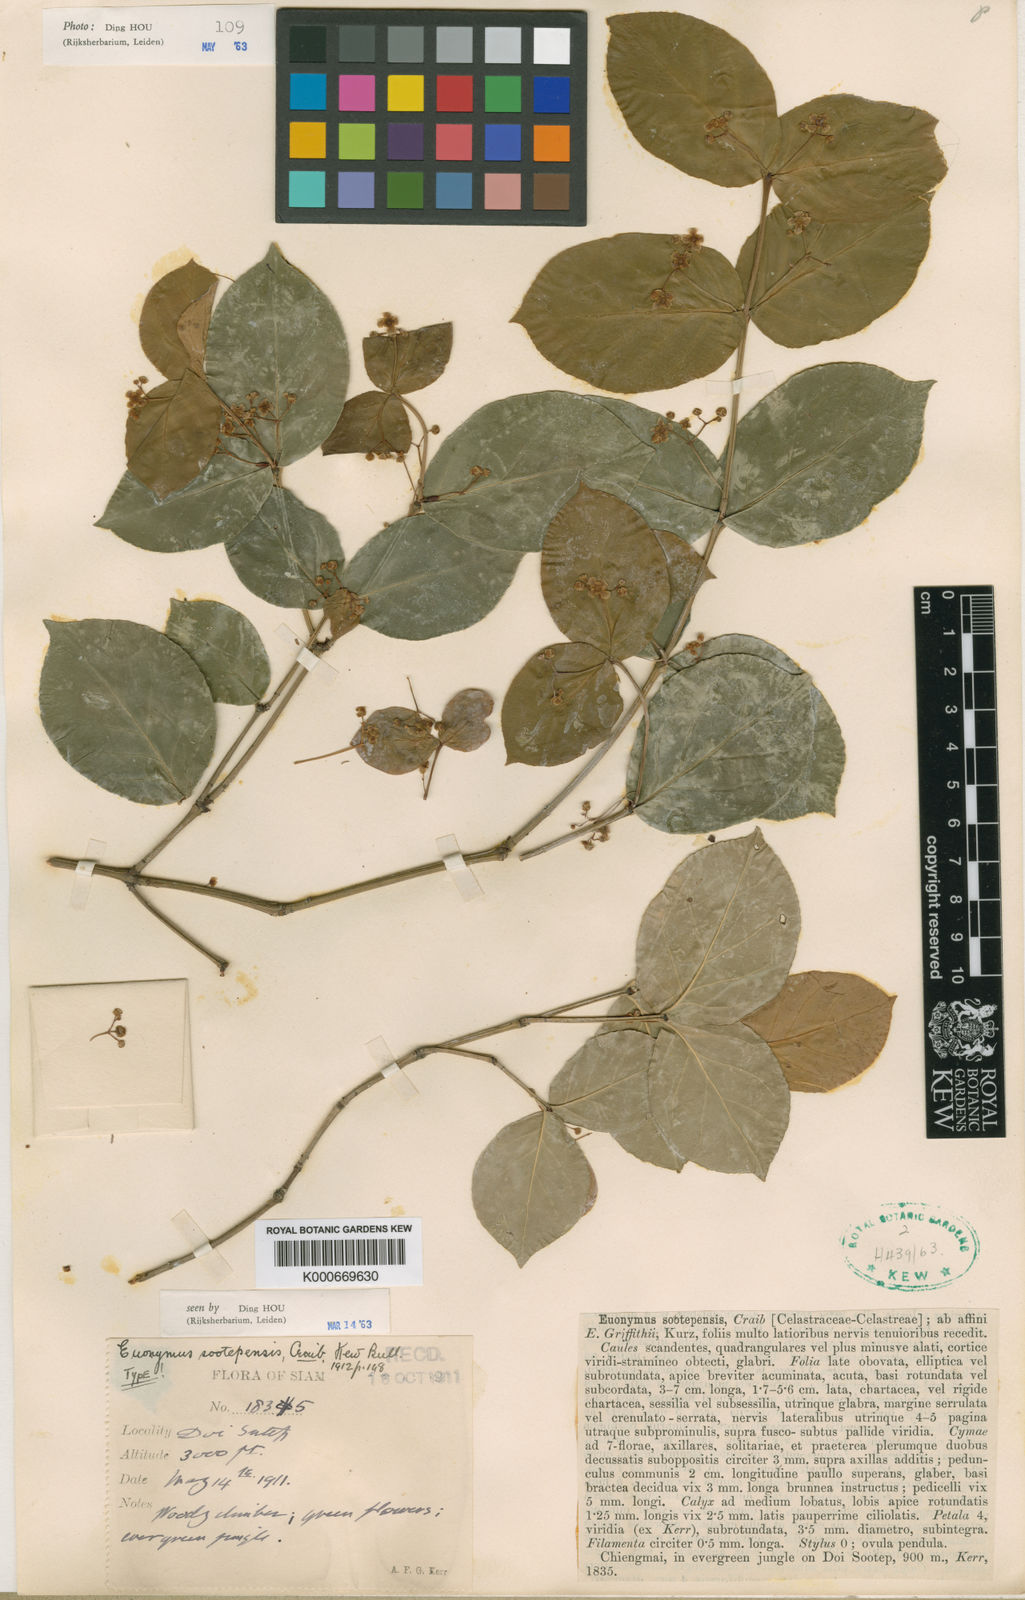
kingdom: Plantae
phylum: Tracheophyta
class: Magnoliopsida
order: Celastrales
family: Celastraceae
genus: Euonymus
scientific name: Euonymus sootepensis
